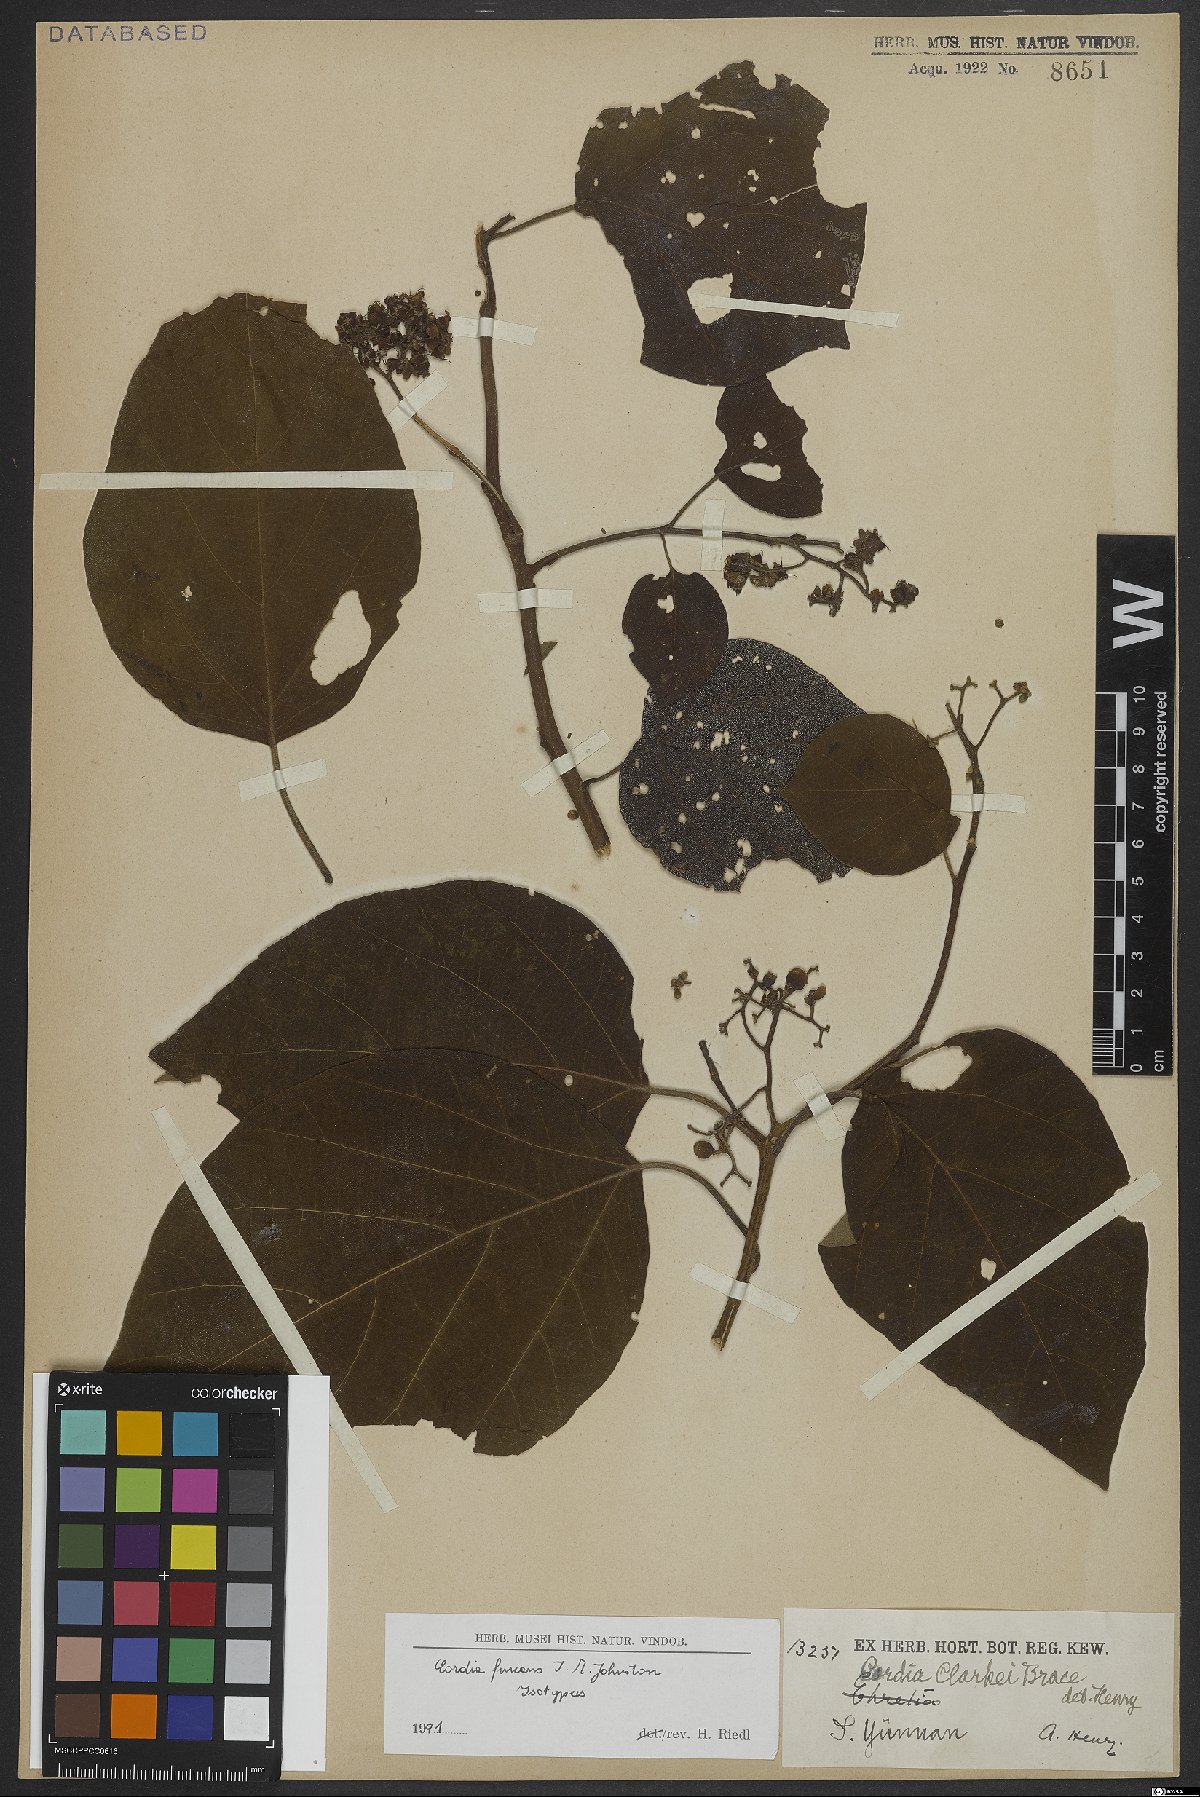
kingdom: Plantae
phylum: Tracheophyta
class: Magnoliopsida
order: Boraginales
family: Cordiaceae
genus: Cordia
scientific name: Cordia furcans
